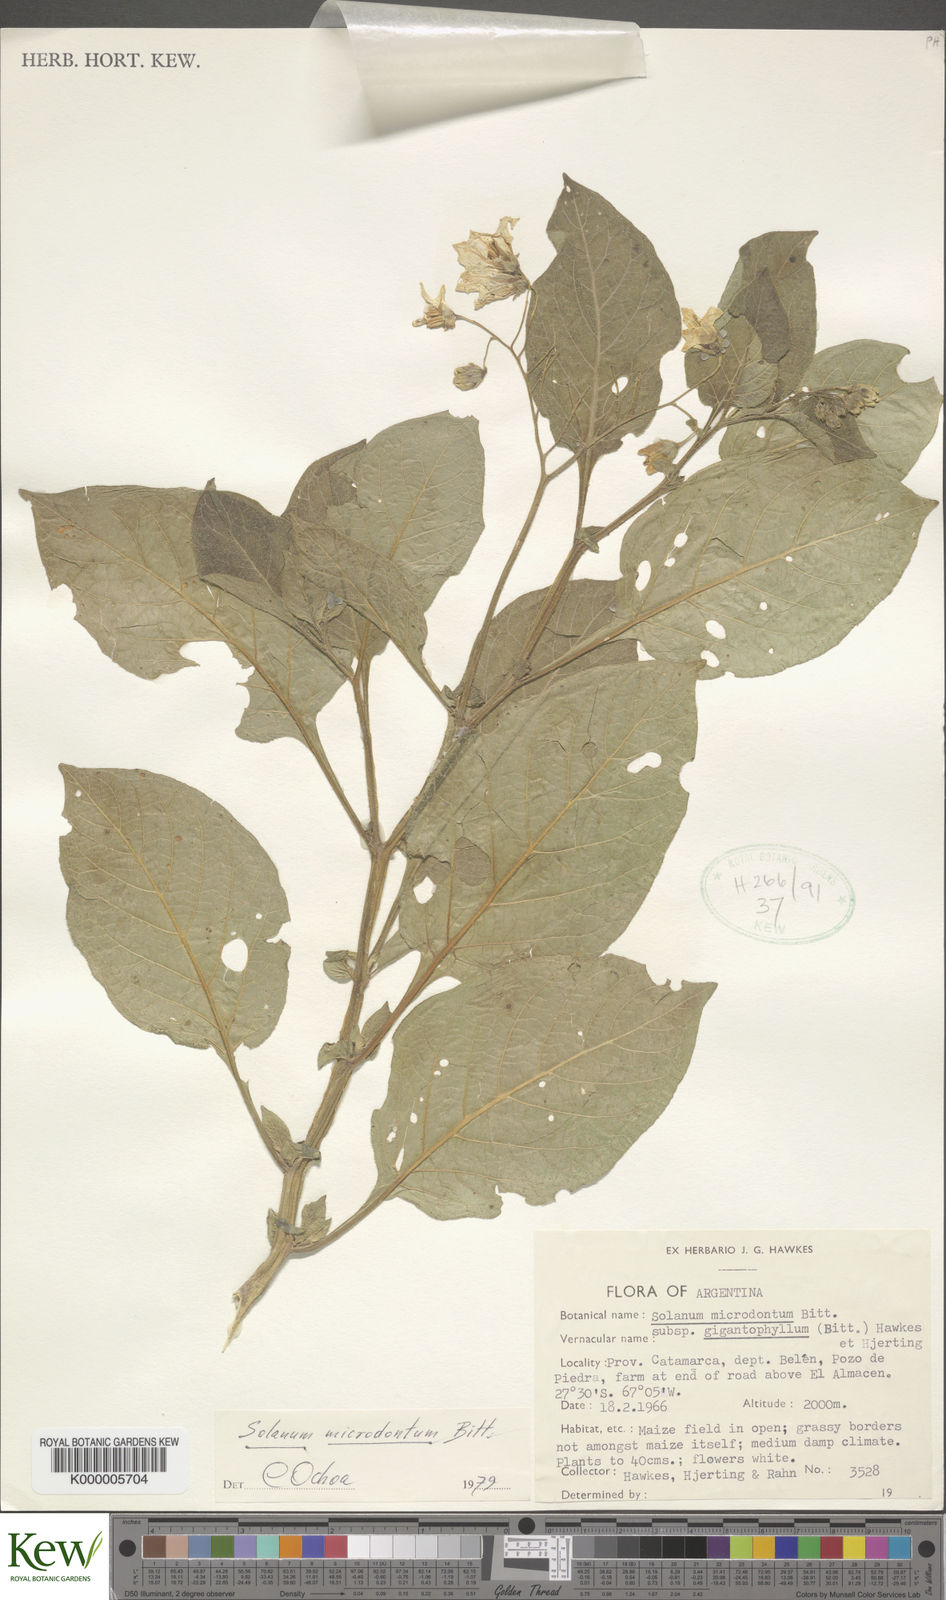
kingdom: Plantae
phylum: Tracheophyta
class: Magnoliopsida
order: Solanales
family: Solanaceae
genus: Solanum
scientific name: Solanum microdontum
